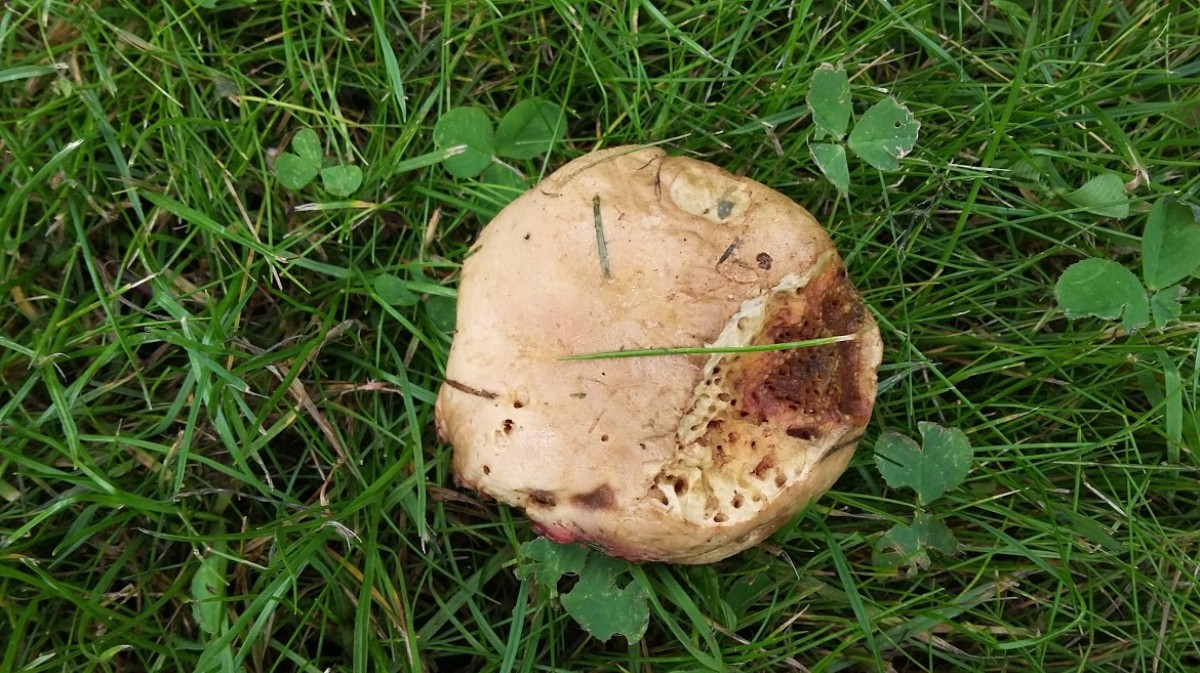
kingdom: Fungi
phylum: Basidiomycota
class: Agaricomycetes
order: Boletales
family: Boletaceae
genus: Xerocomellus
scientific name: Xerocomellus chrysenteron
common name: rødsprukken rørhat
